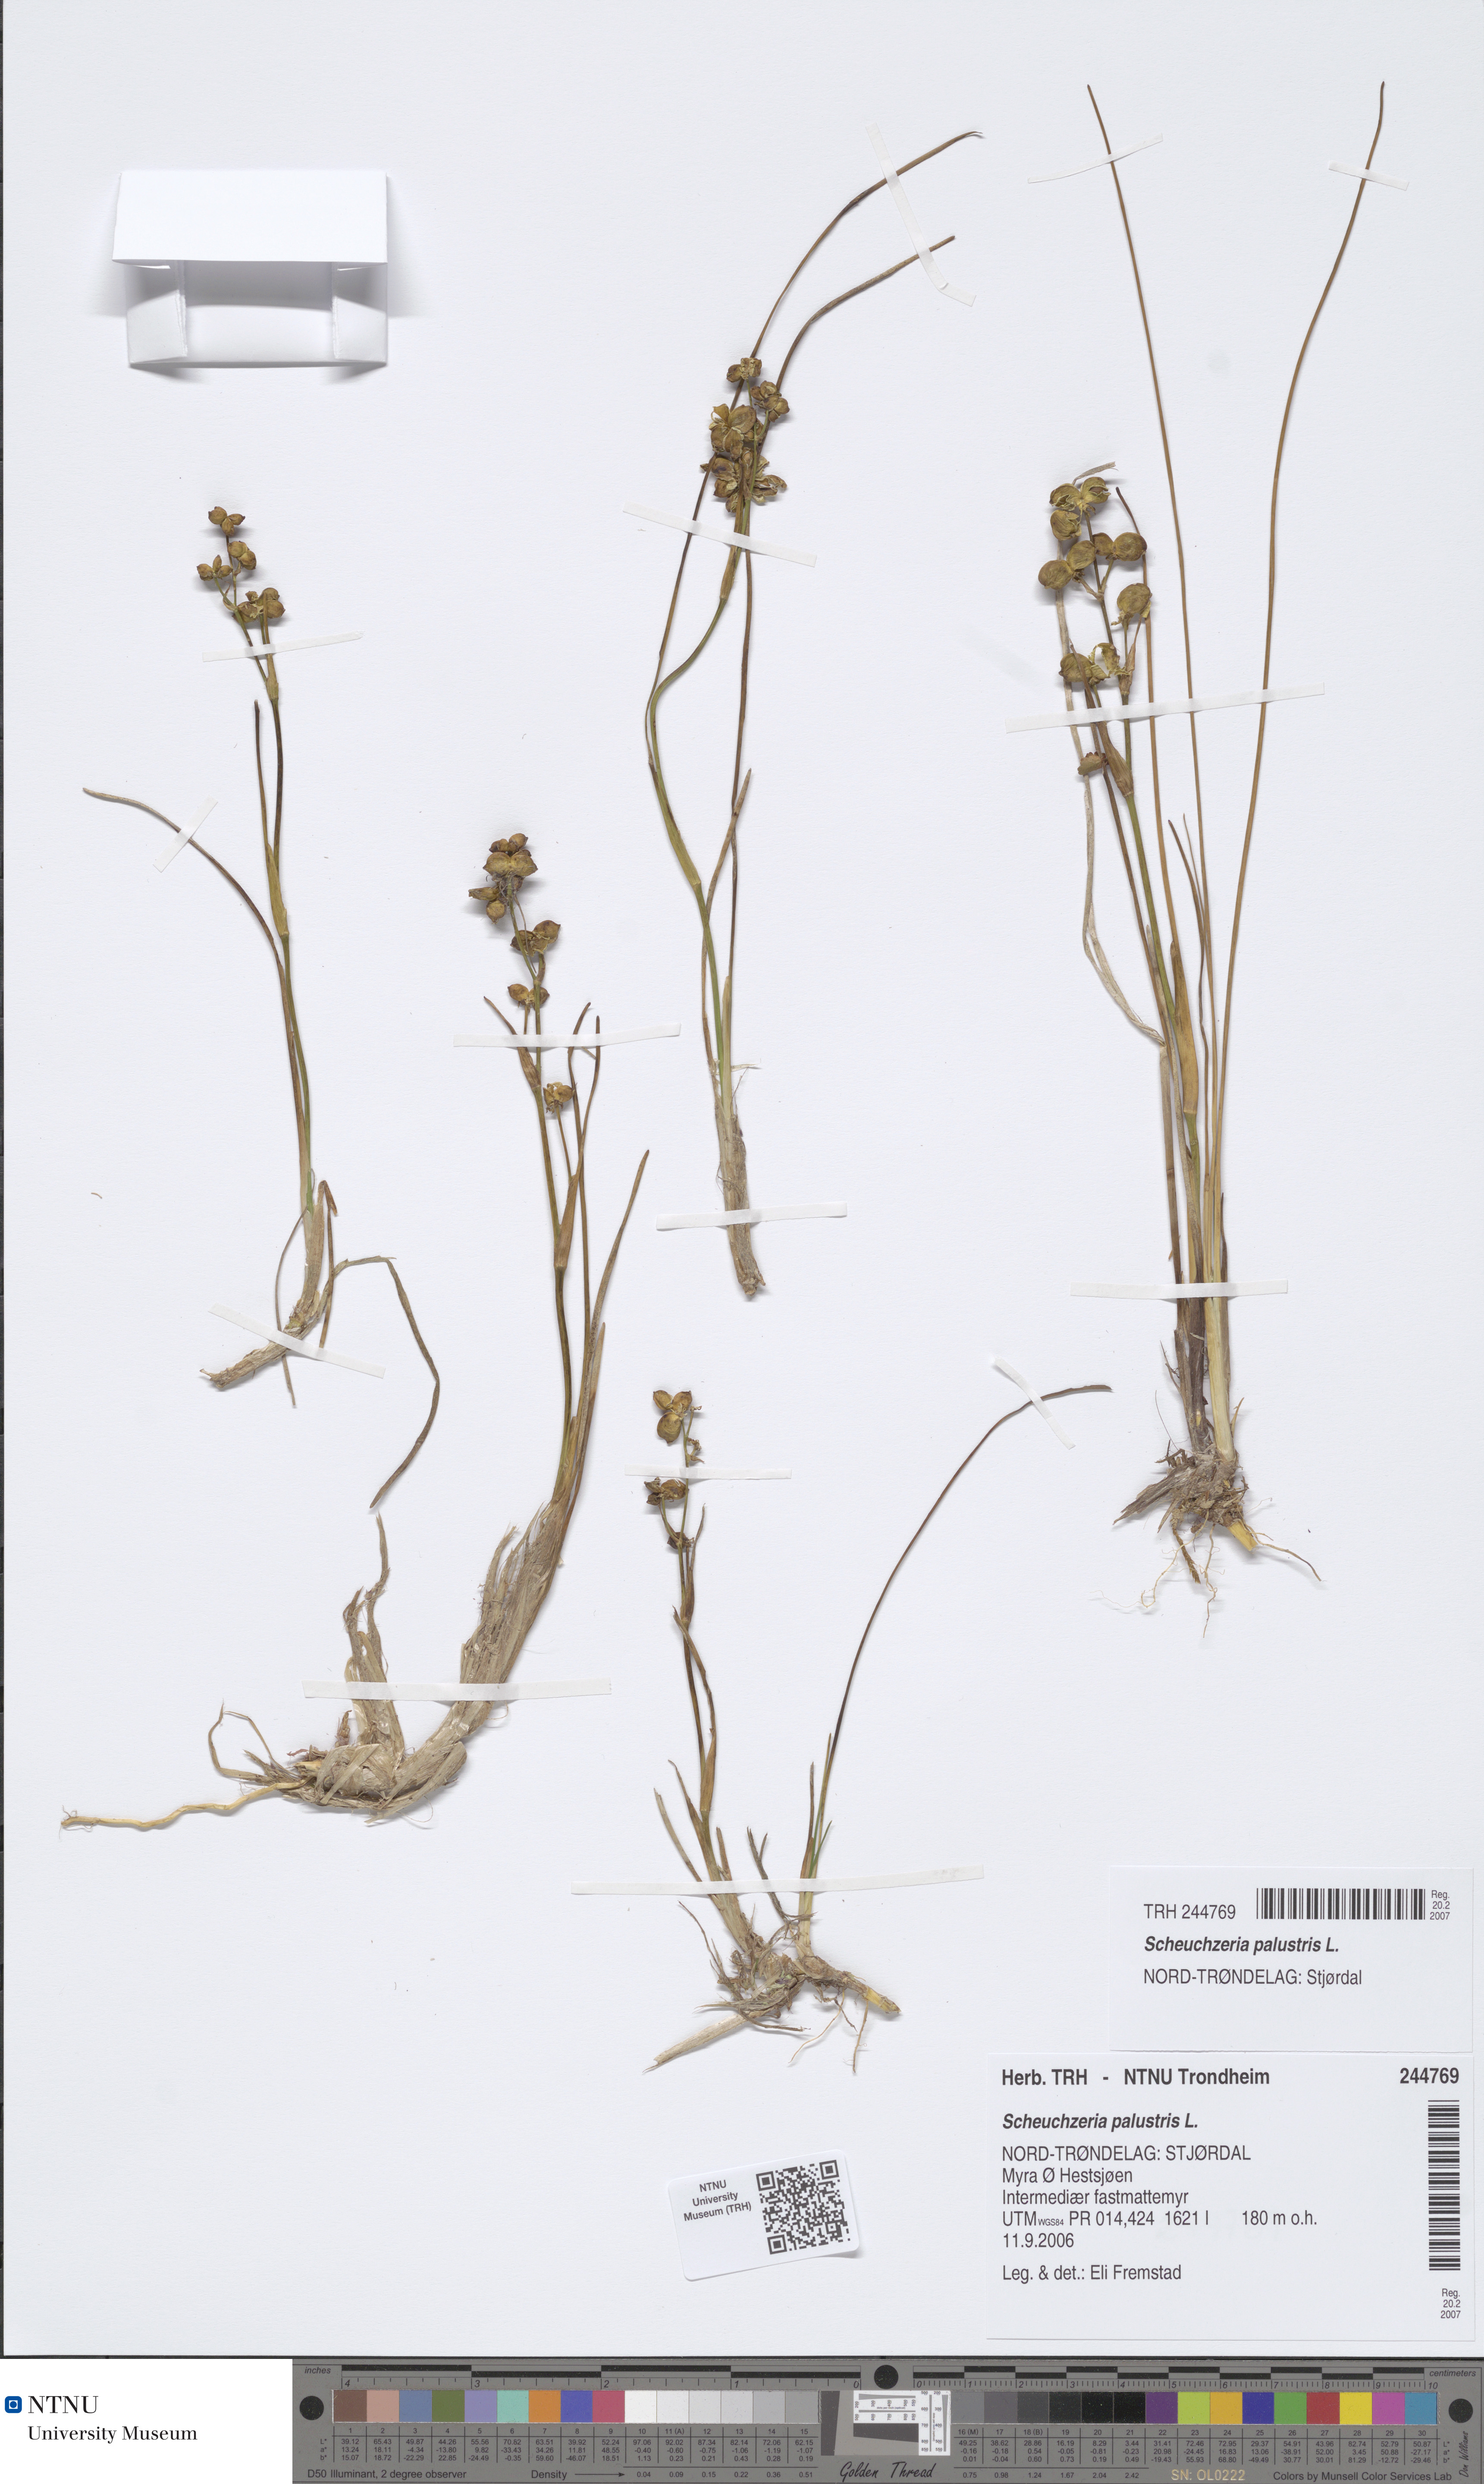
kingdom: Plantae
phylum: Tracheophyta
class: Liliopsida
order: Alismatales
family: Scheuchzeriaceae
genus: Scheuchzeria
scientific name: Scheuchzeria palustris
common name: Rannoch-rush
